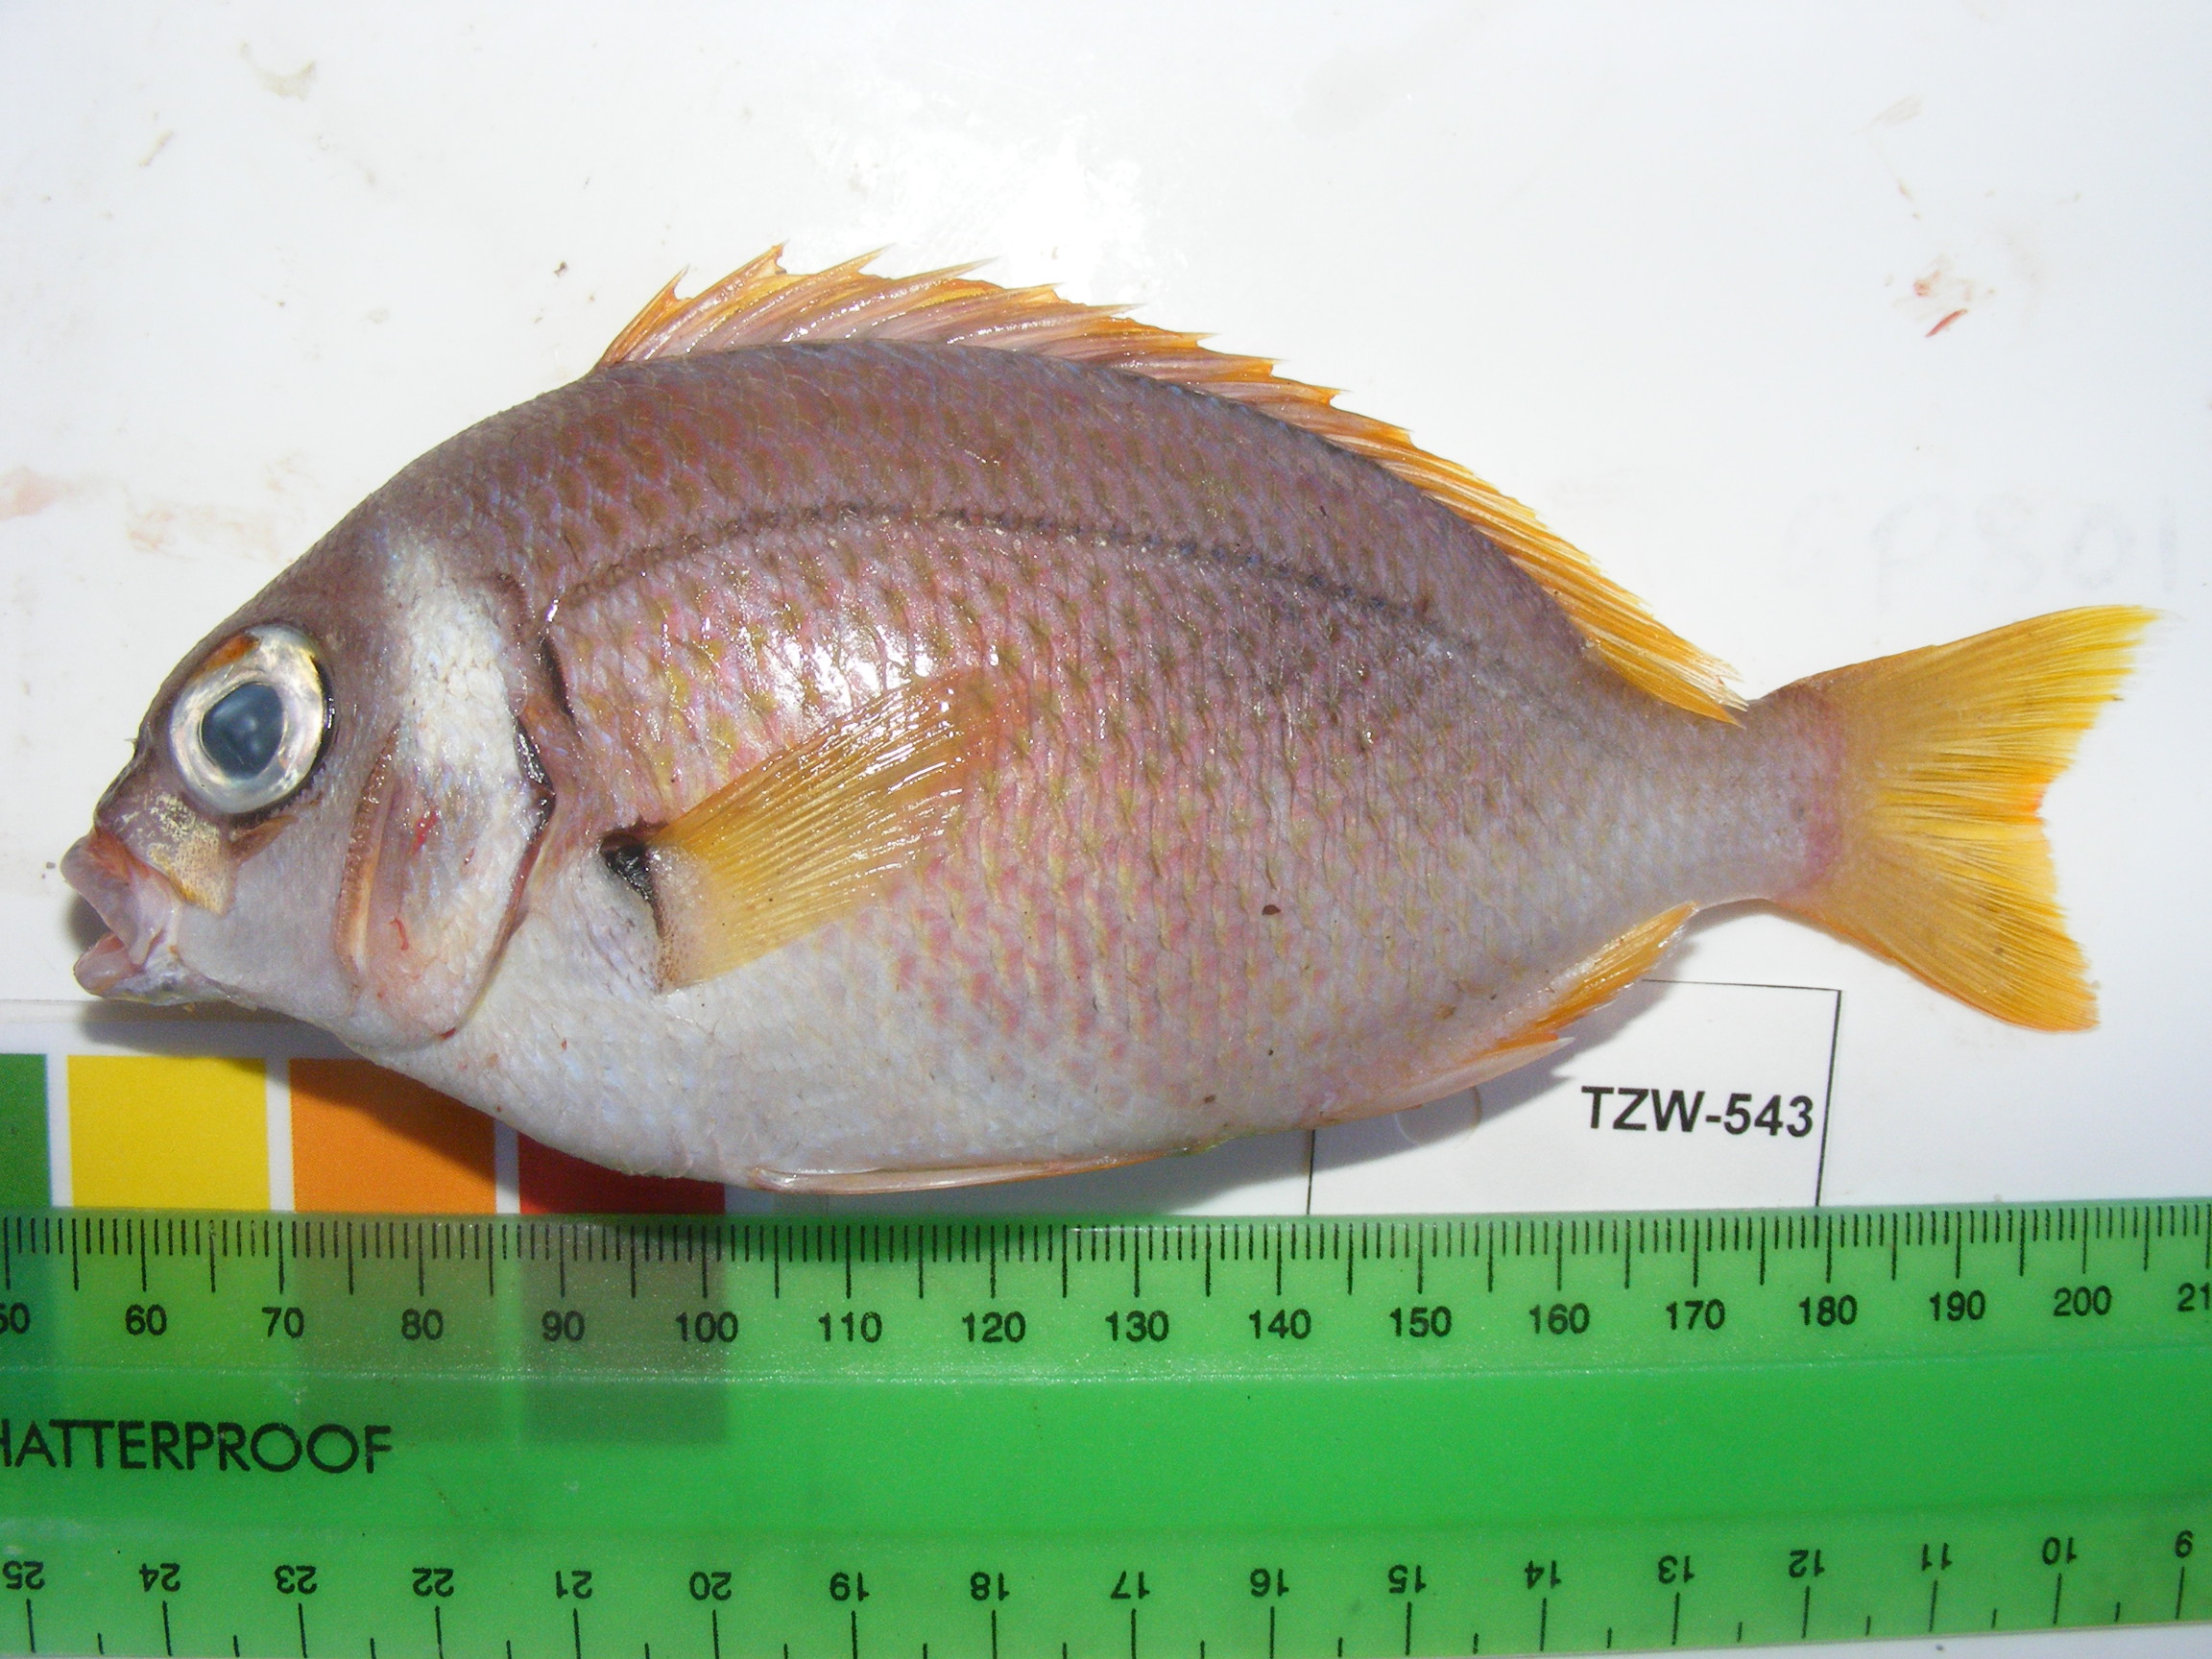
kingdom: Animalia
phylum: Chordata
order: Perciformes
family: Nemipteridae
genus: Scolopsis
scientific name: Scolopsis vosmeri
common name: Whitecheek monocle bream
